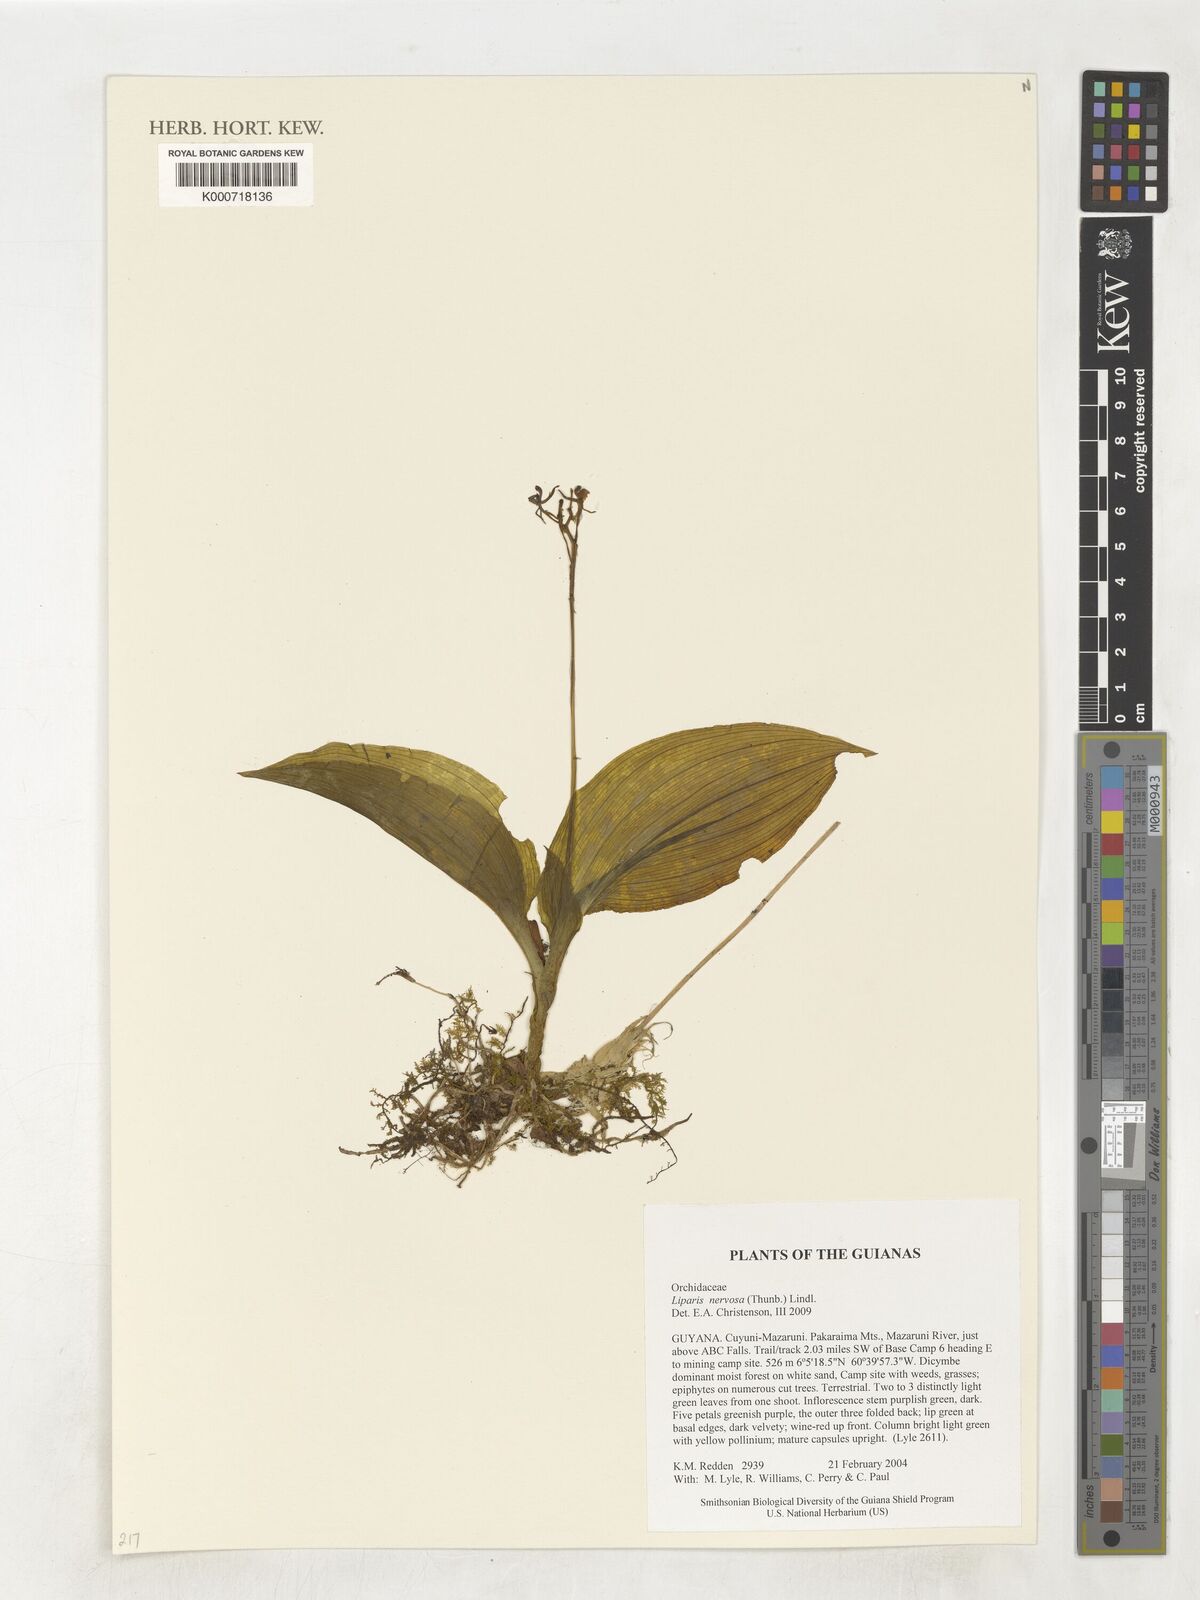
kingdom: Plantae
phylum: Tracheophyta
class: Liliopsida
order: Asparagales
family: Orchidaceae
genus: Liparis
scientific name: Liparis nervosa
